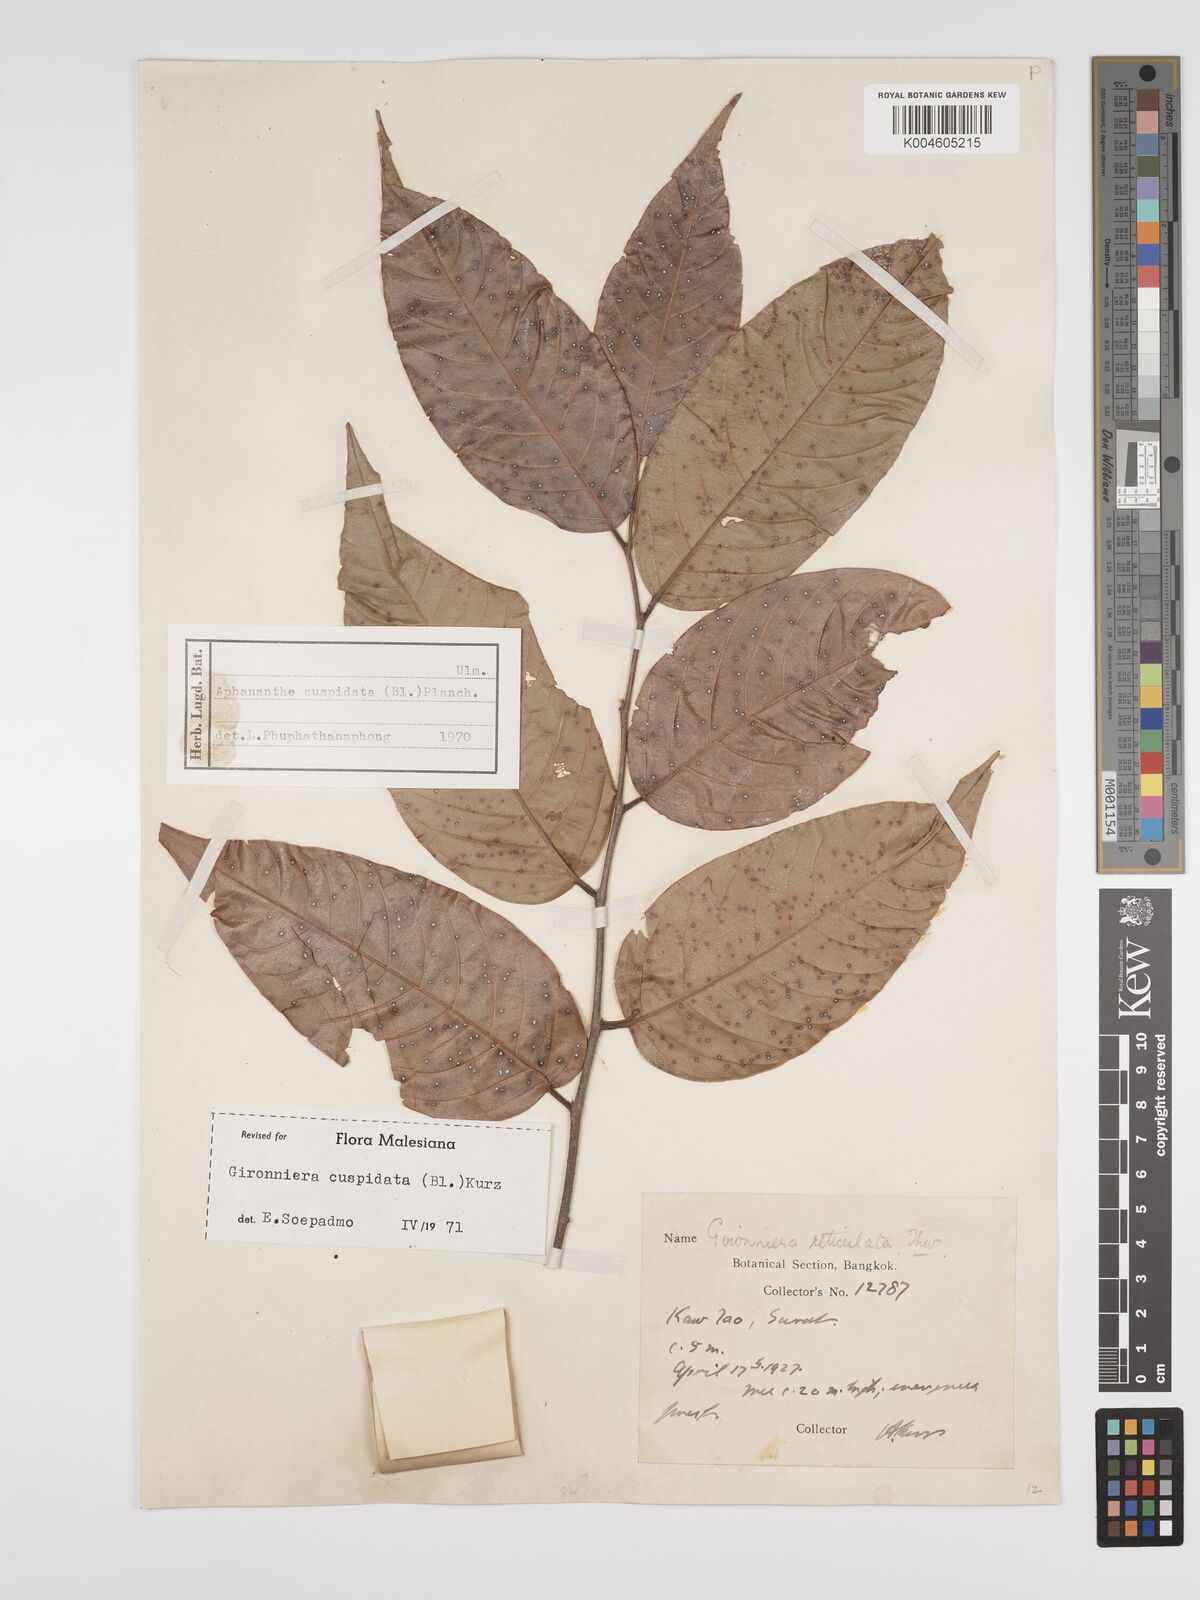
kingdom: Plantae
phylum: Tracheophyta
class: Magnoliopsida
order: Rosales
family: Cannabaceae
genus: Aphananthe
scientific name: Aphananthe cuspidata
